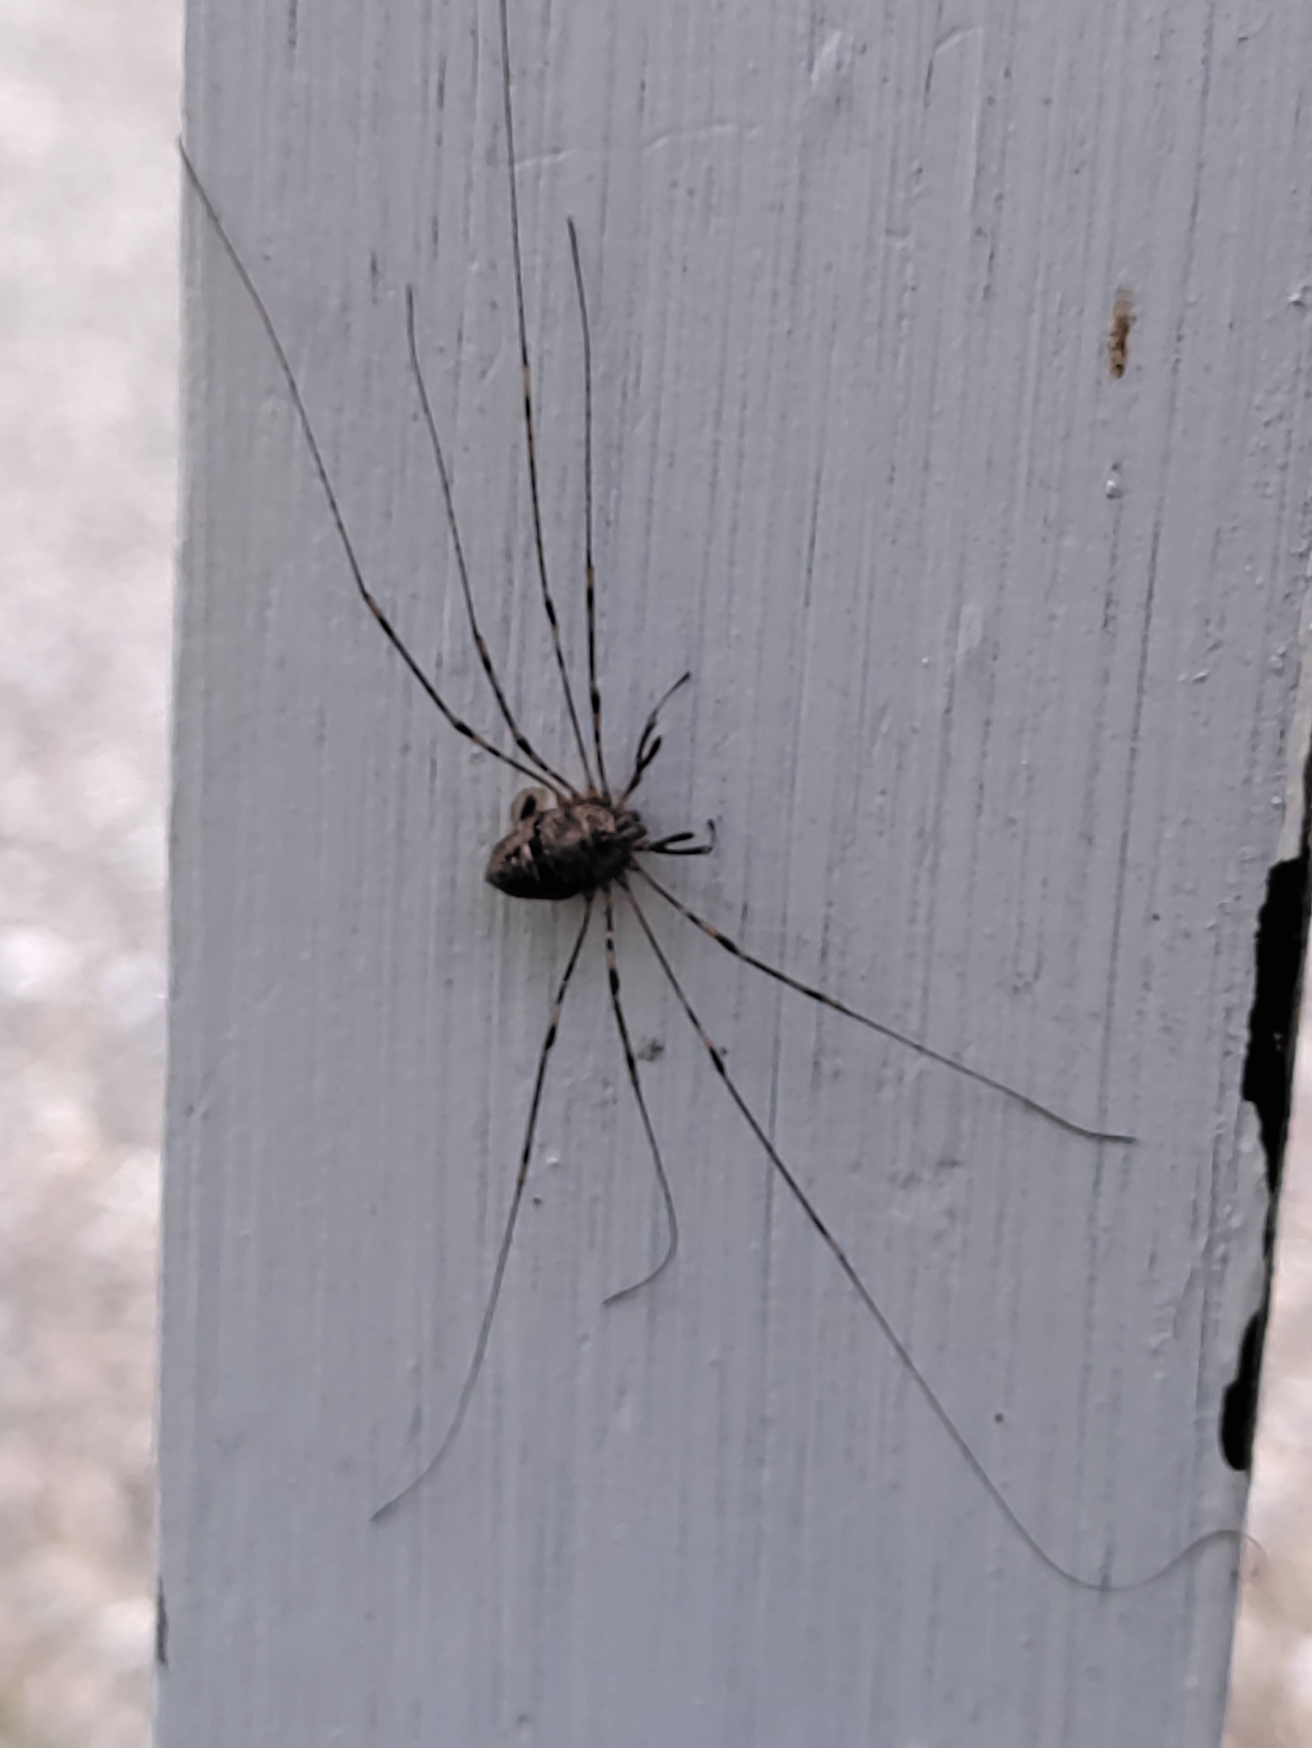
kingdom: Animalia
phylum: Arthropoda
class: Arachnida
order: Opiliones
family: Phalangiidae
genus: Dicranopalpus
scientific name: Dicranopalpus
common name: Gaffelmejere
